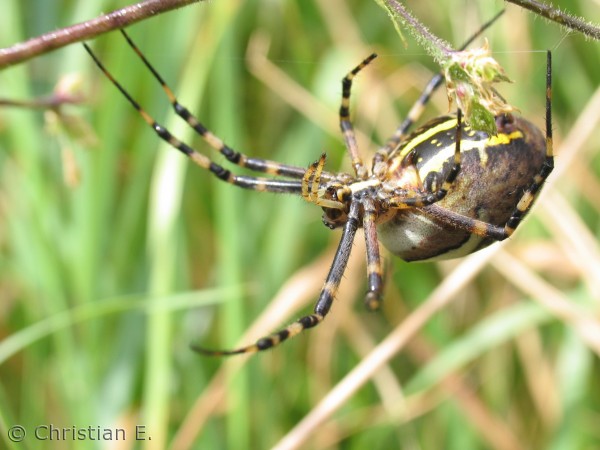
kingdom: Animalia
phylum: Arthropoda
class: Arachnida
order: Araneae
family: Araneidae
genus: Argiope
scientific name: Argiope bruennichi
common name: Hvepseedderkop
